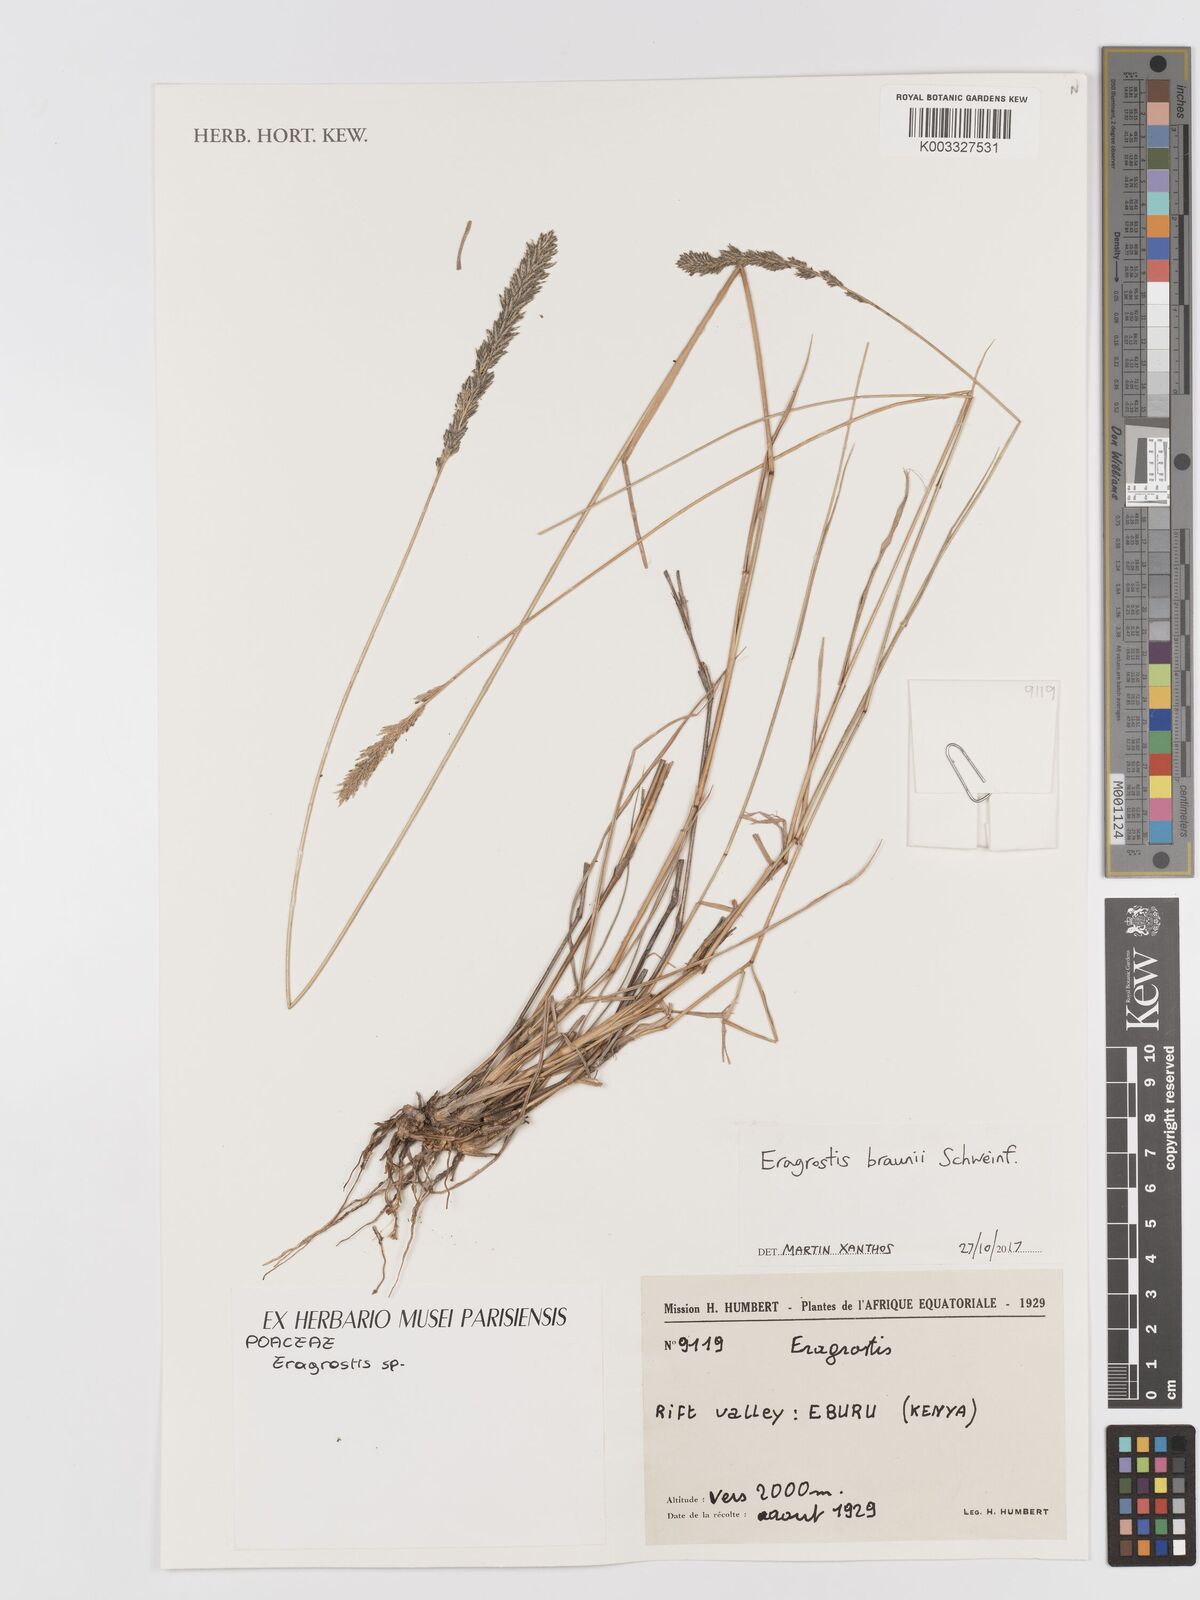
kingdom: Plantae
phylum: Tracheophyta
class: Liliopsida
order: Poales
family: Poaceae
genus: Eragrostis
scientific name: Eragrostis braunii
